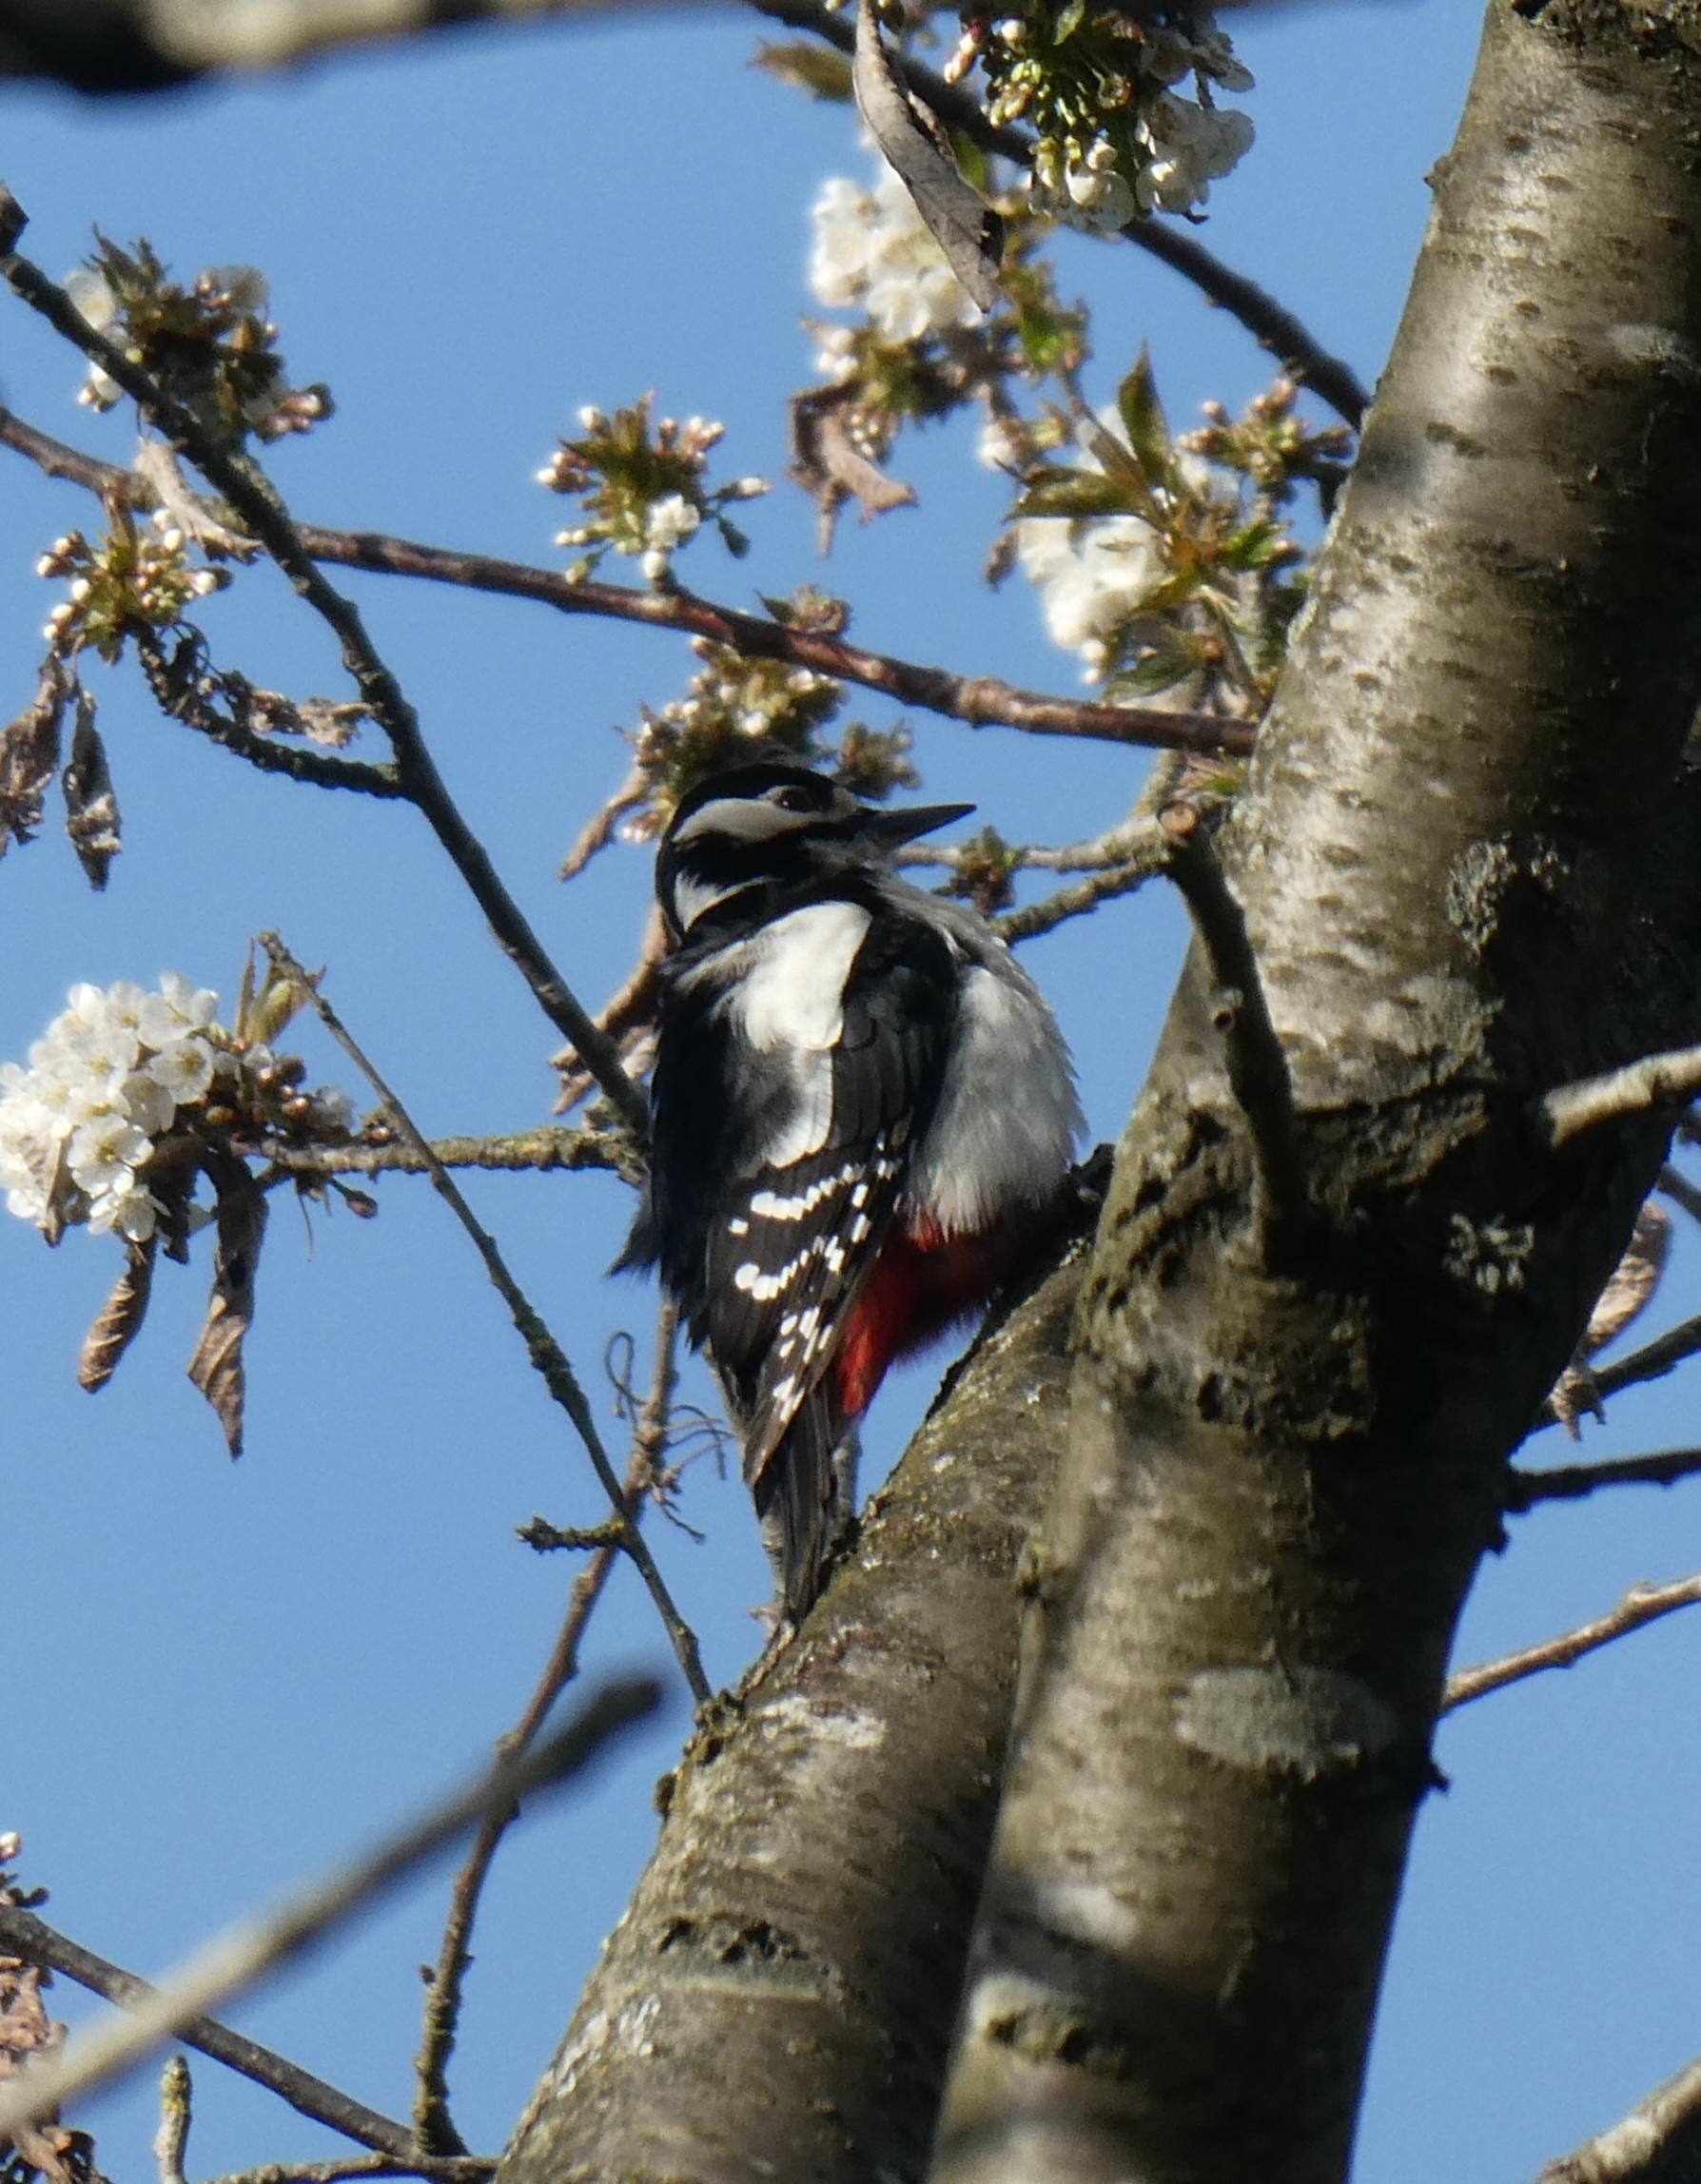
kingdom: Animalia
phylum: Chordata
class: Aves
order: Piciformes
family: Picidae
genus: Dendrocopos
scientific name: Dendrocopos major
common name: Stor flagspætte
